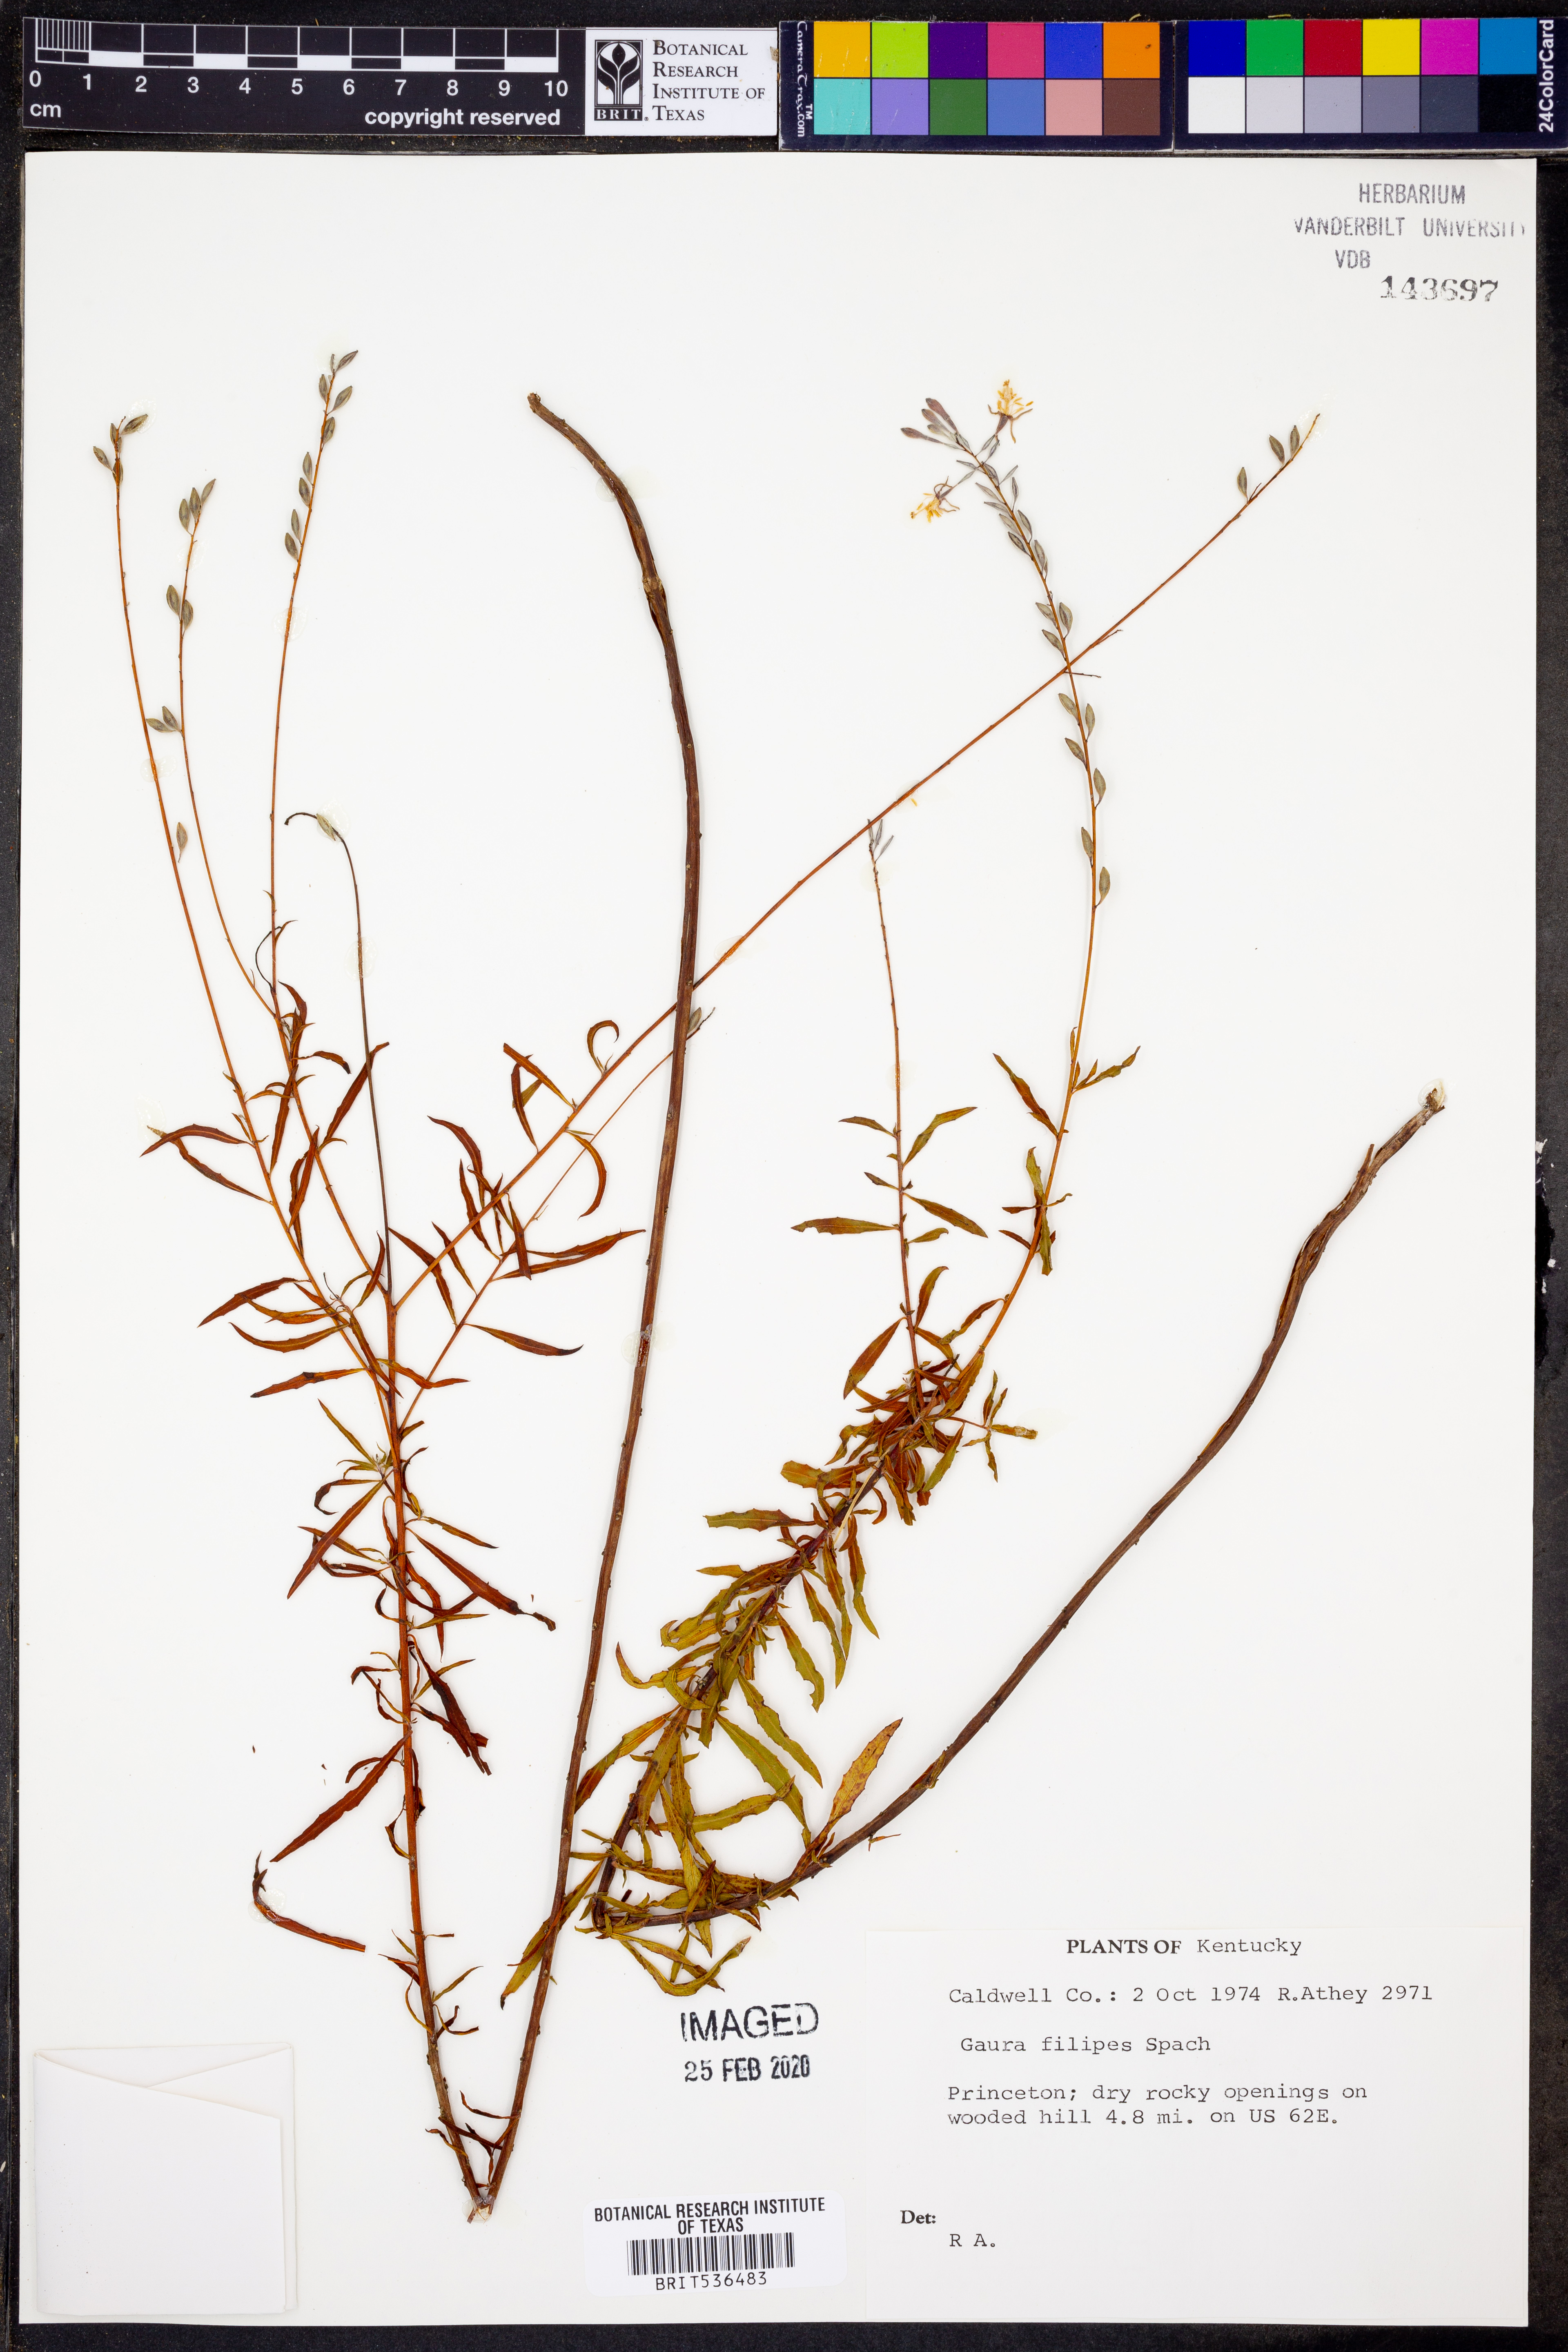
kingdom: Plantae
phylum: Tracheophyta
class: Magnoliopsida
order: Myrtales
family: Onagraceae
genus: Oenothera
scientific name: Oenothera filipes
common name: Slenderstalk beeblossom
